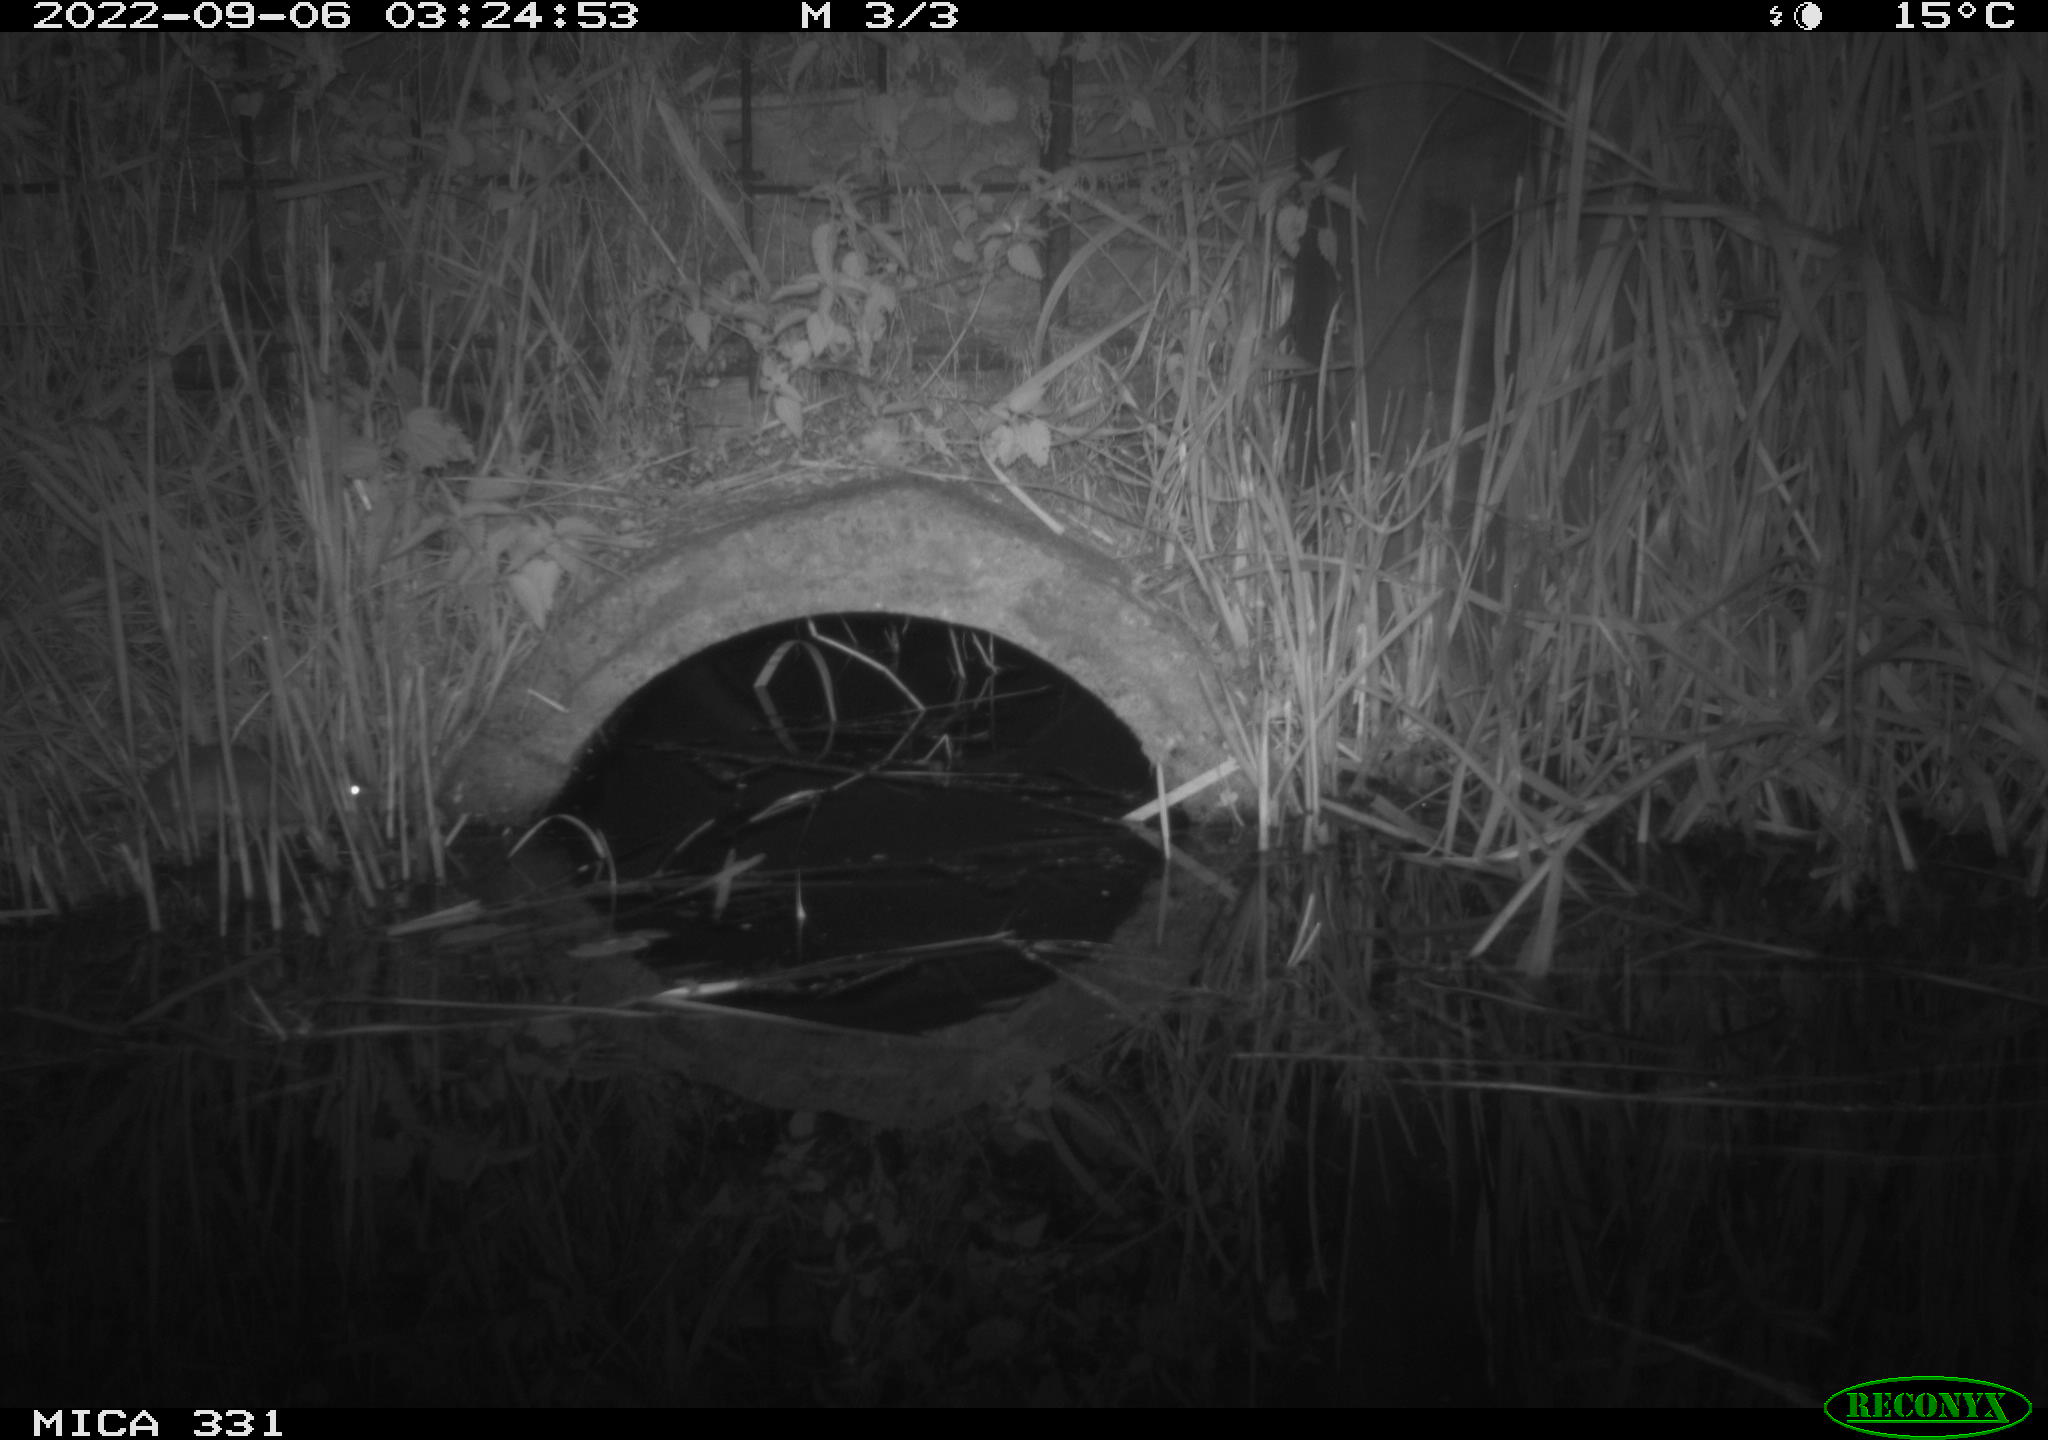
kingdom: Animalia
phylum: Chordata
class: Mammalia
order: Rodentia
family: Muridae
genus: Rattus
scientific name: Rattus norvegicus
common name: Brown rat
